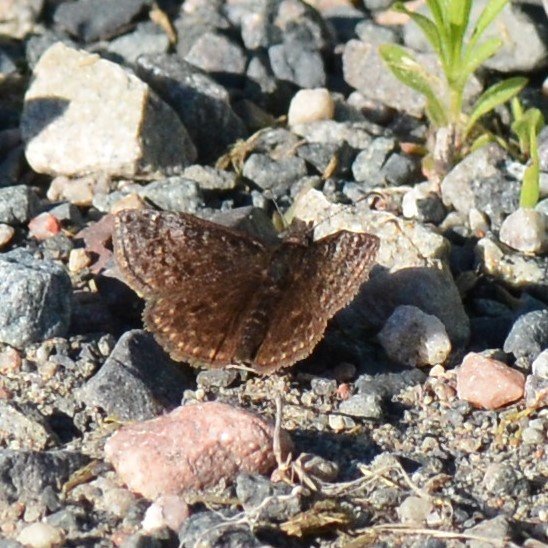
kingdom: Animalia
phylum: Arthropoda
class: Insecta
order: Lepidoptera
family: Hesperiidae
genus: Erynnis
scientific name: Erynnis icelus
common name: Dreamy Duskywing
